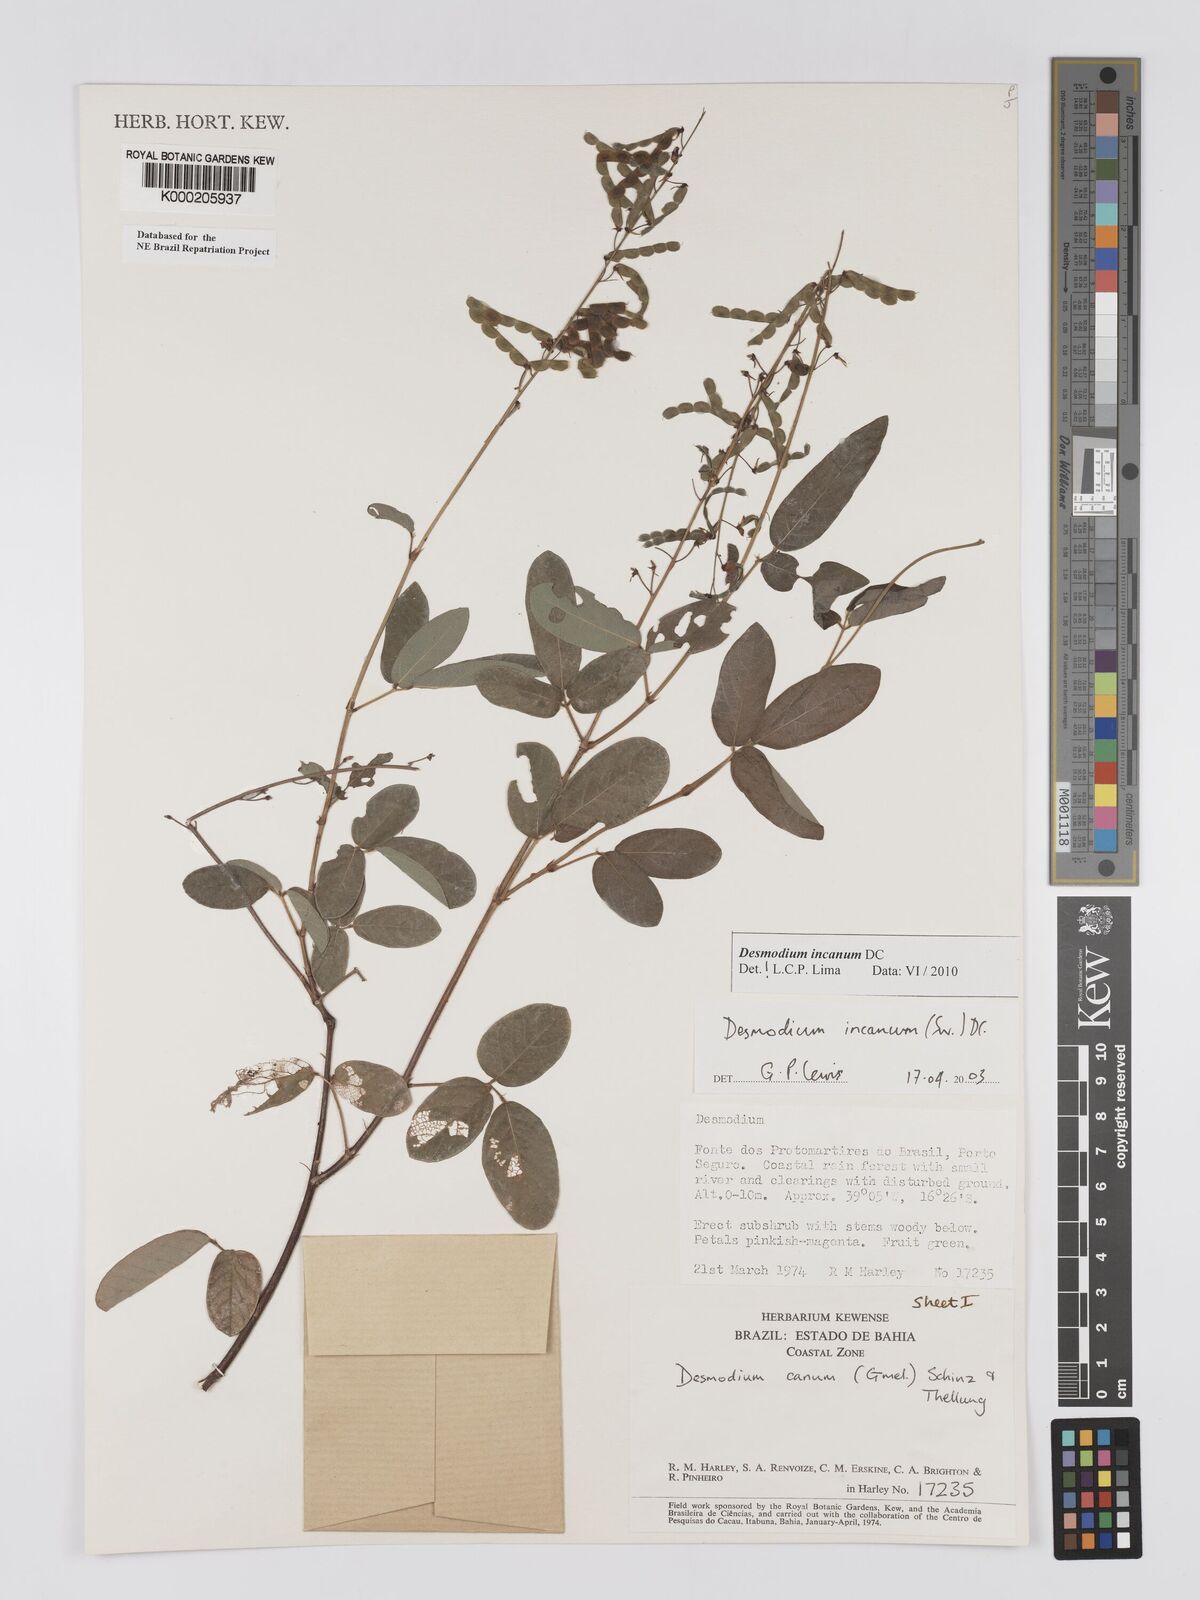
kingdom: Plantae
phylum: Tracheophyta
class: Magnoliopsida
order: Fabales
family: Fabaceae
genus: Desmodium
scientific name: Desmodium incanum
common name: Tickclover
